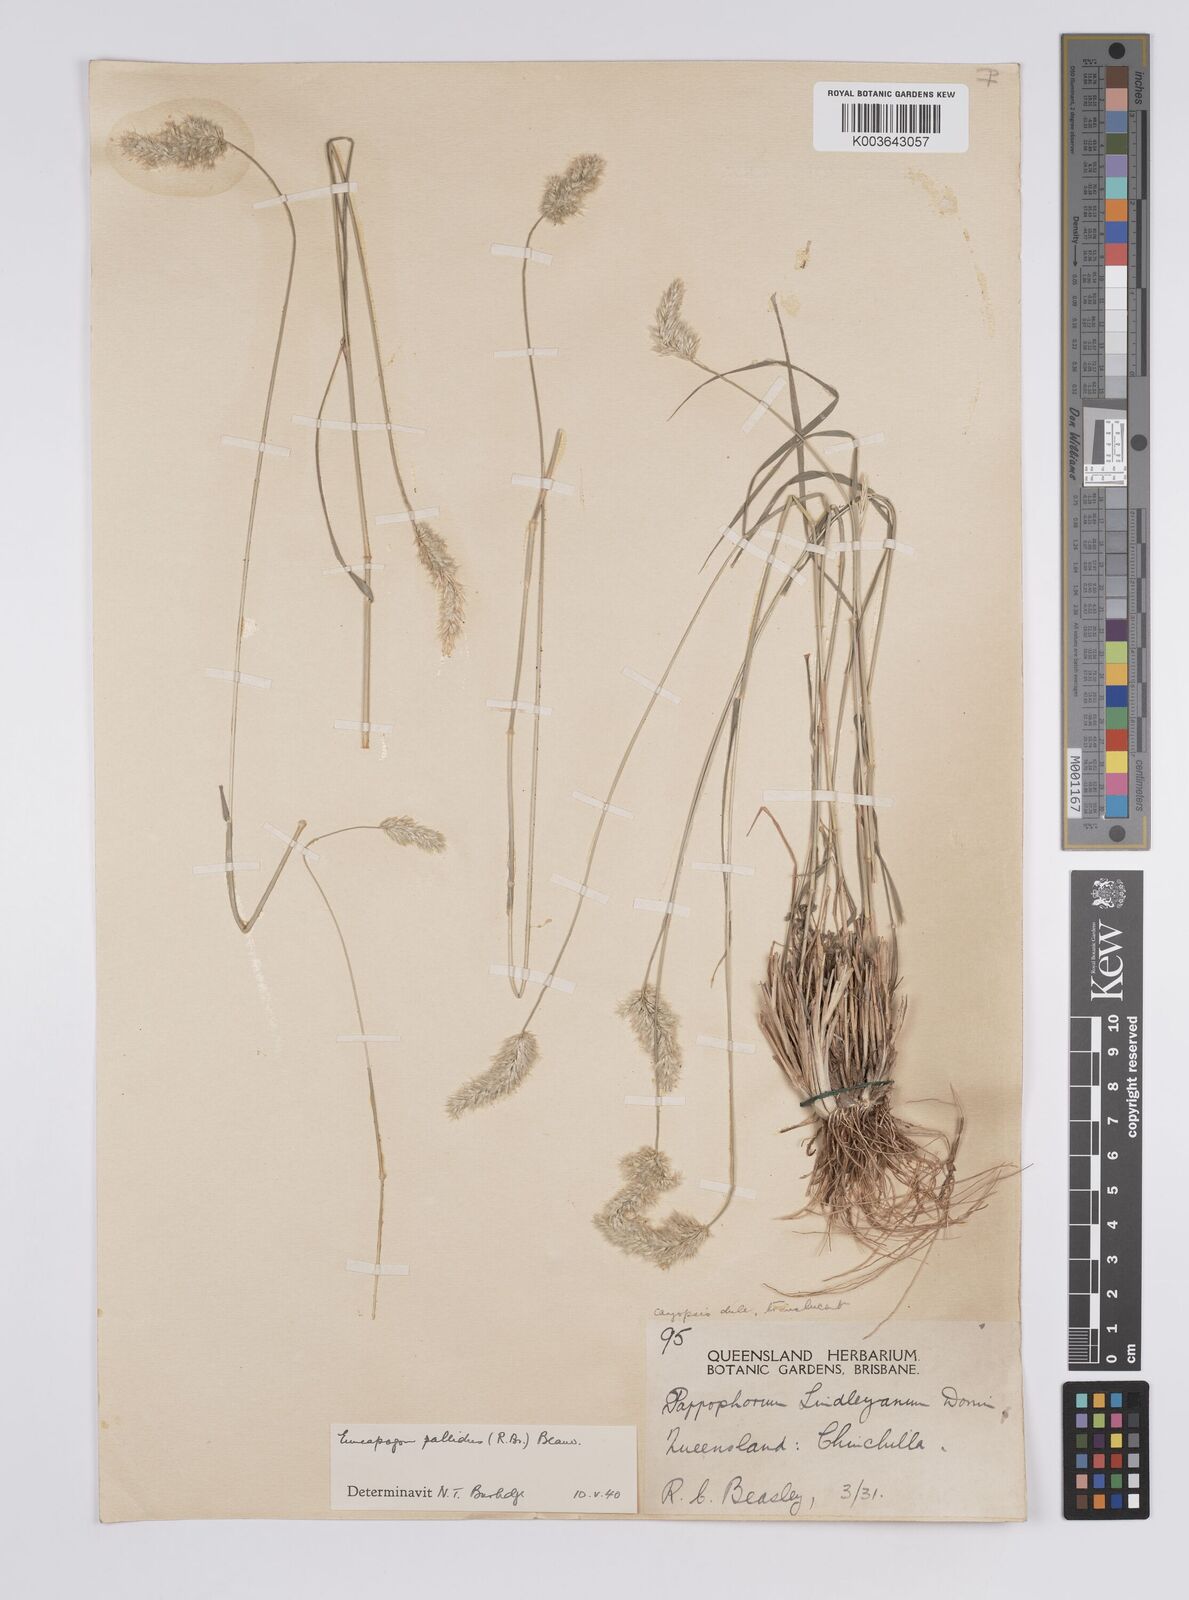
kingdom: Plantae
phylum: Tracheophyta
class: Liliopsida
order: Poales
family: Poaceae
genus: Enneapogon
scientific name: Enneapogon pallidus
